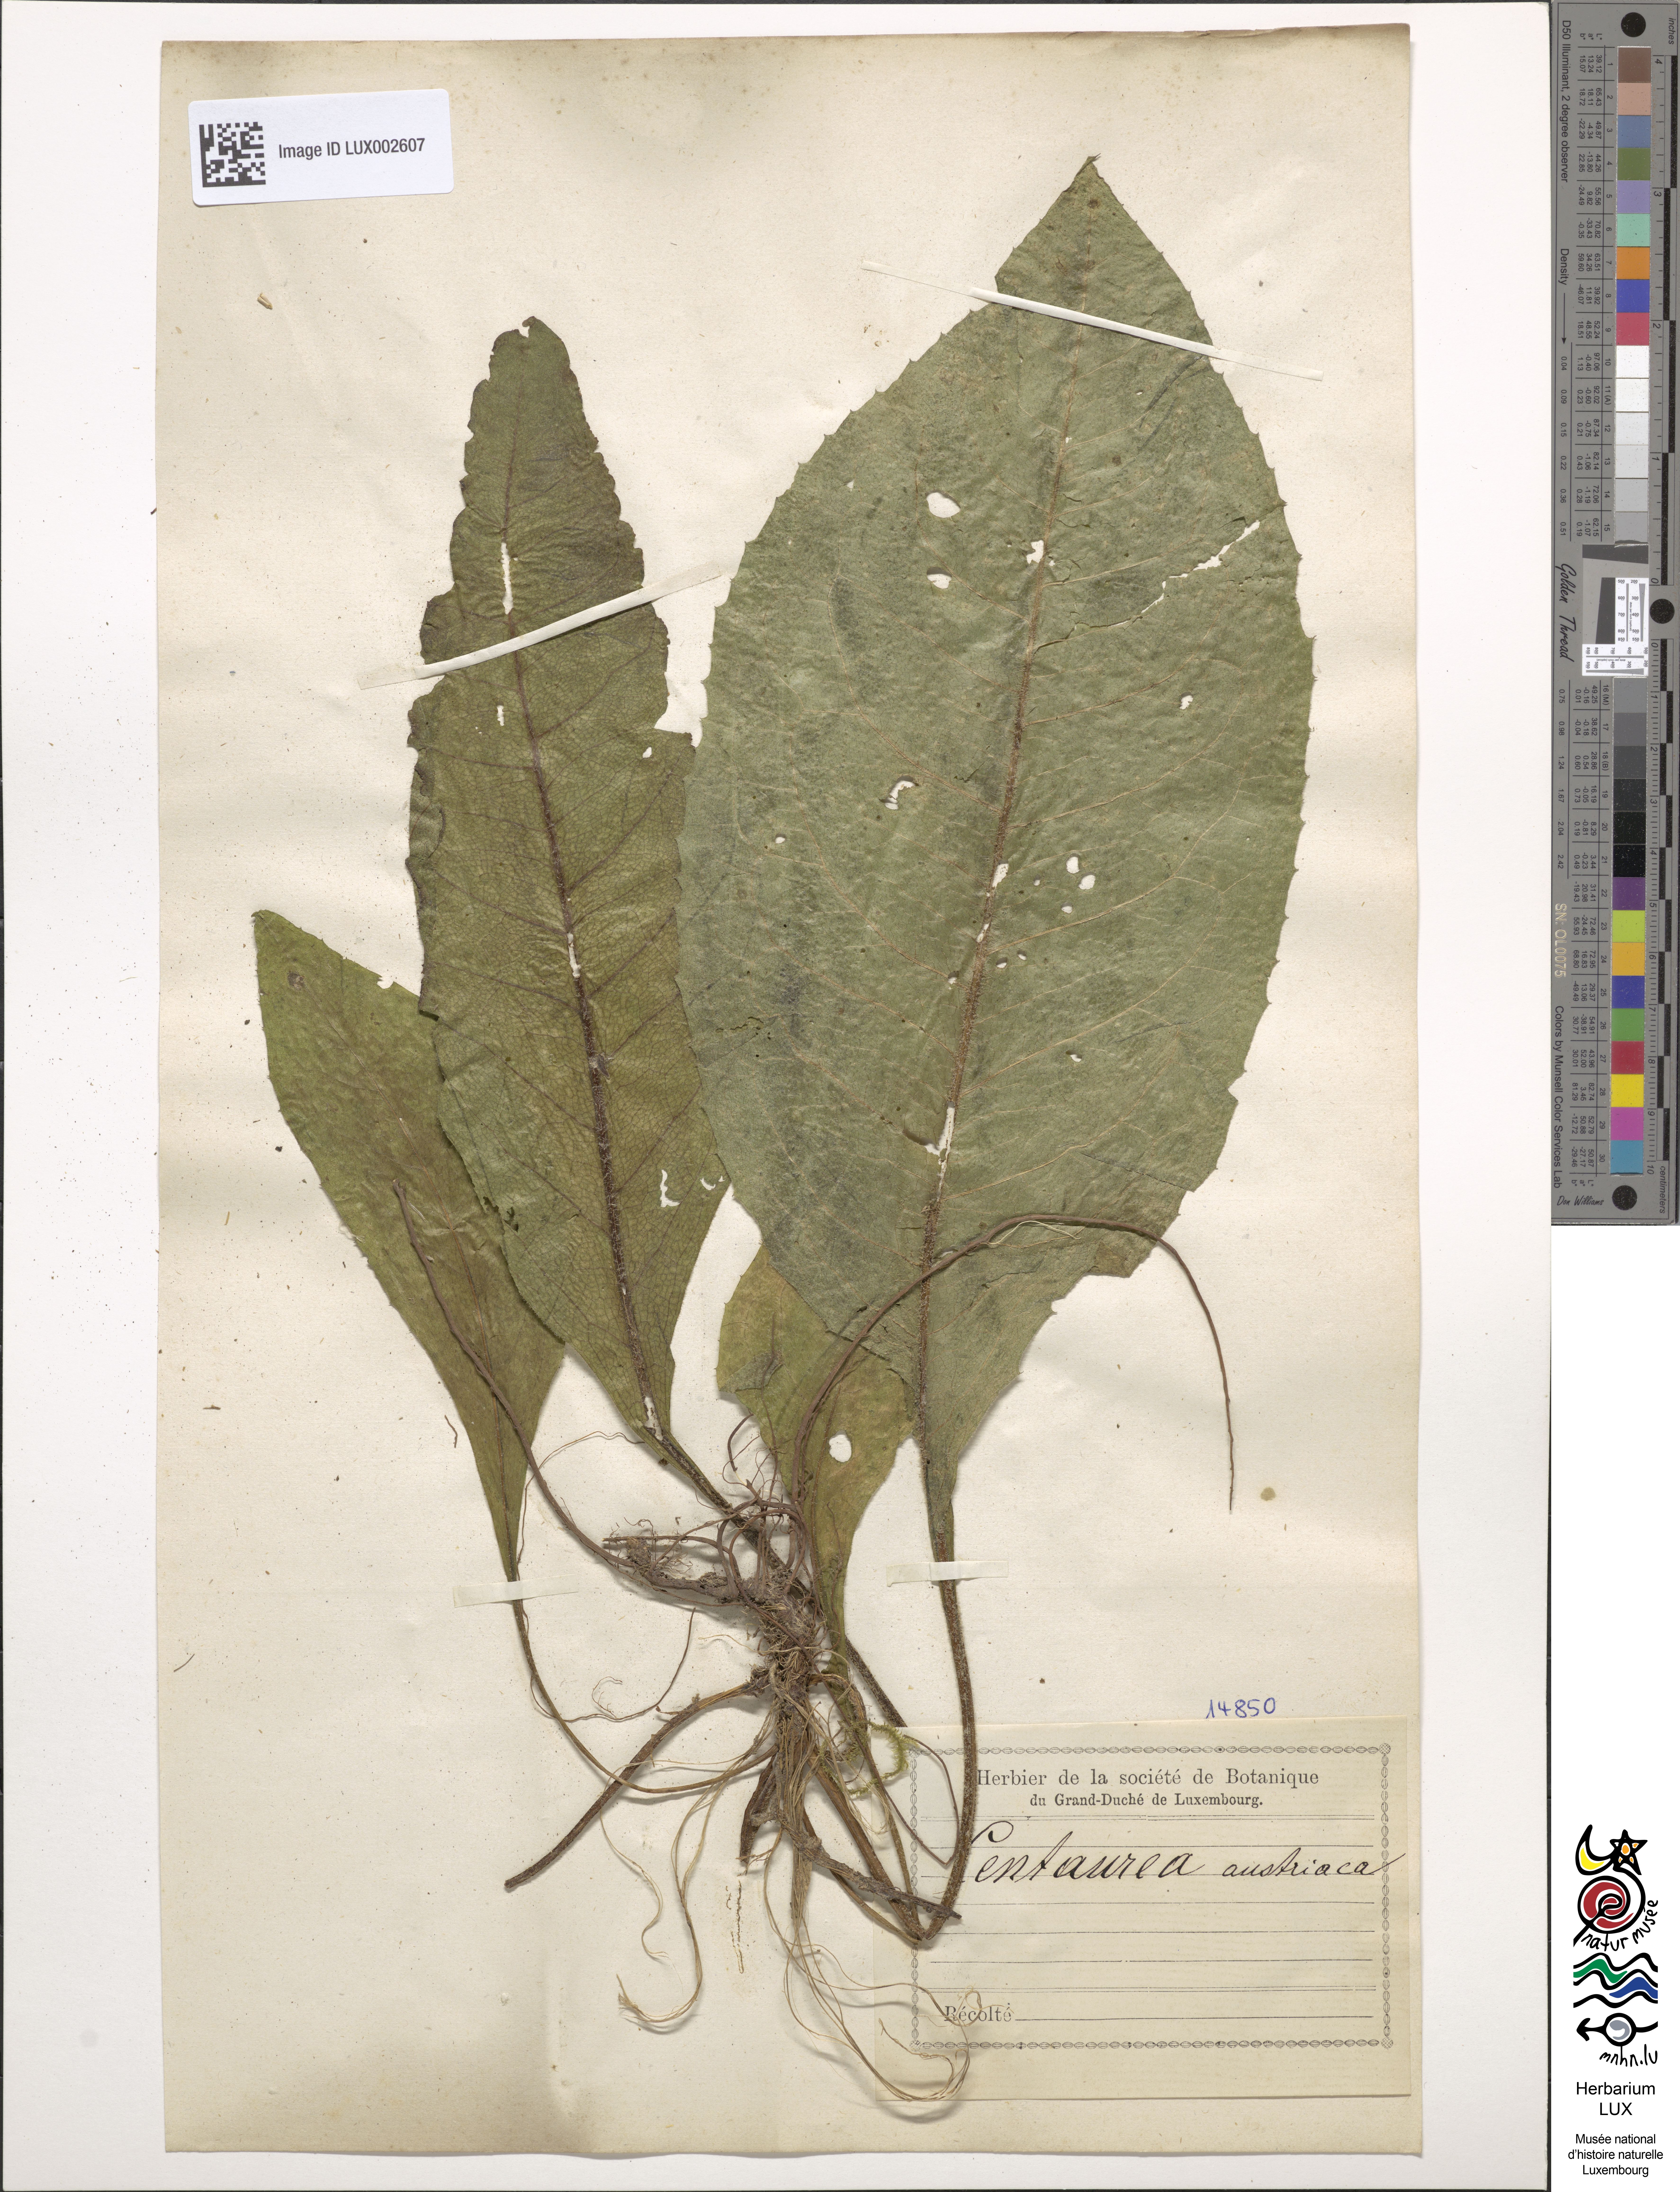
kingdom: Plantae
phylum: Tracheophyta
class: Magnoliopsida
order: Asterales
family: Asteraceae
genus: Centaurea
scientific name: Centaurea phrygia
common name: Wig knapweed
